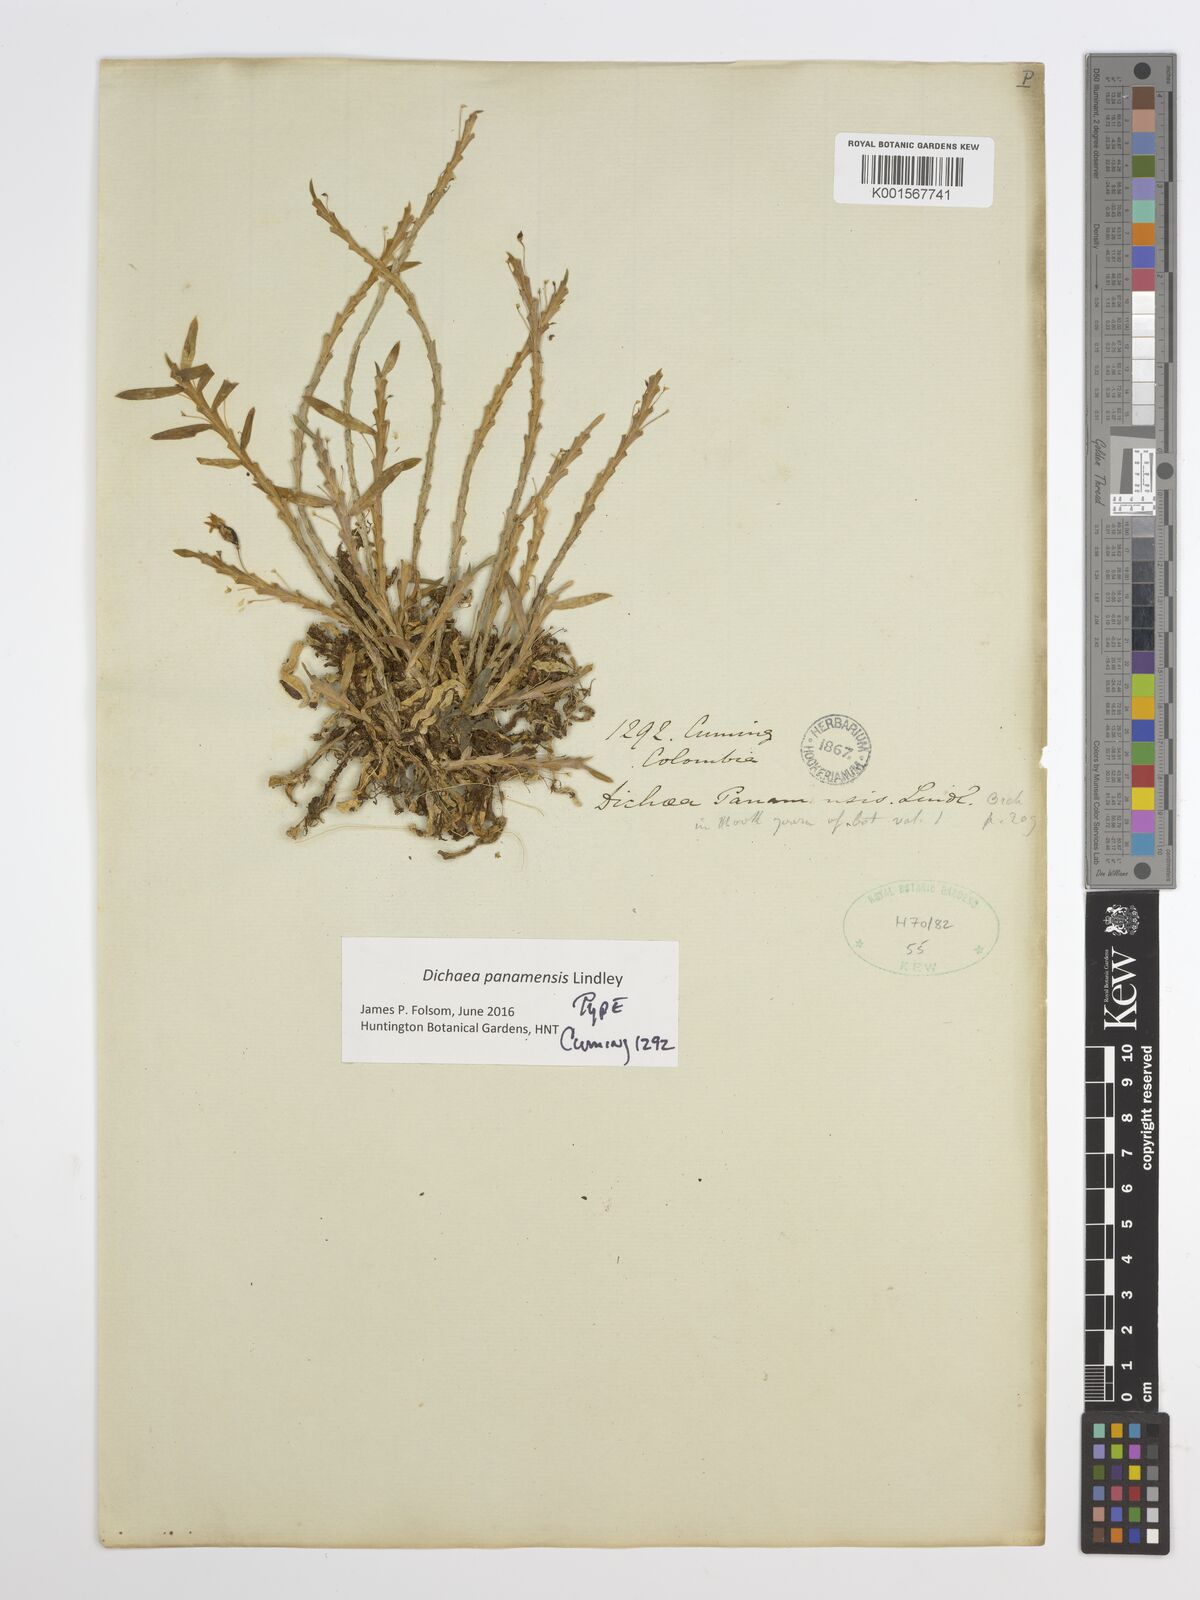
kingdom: Plantae
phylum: Tracheophyta
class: Liliopsida
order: Asparagales
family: Orchidaceae
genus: Dichaea
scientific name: Dichaea panamensis
